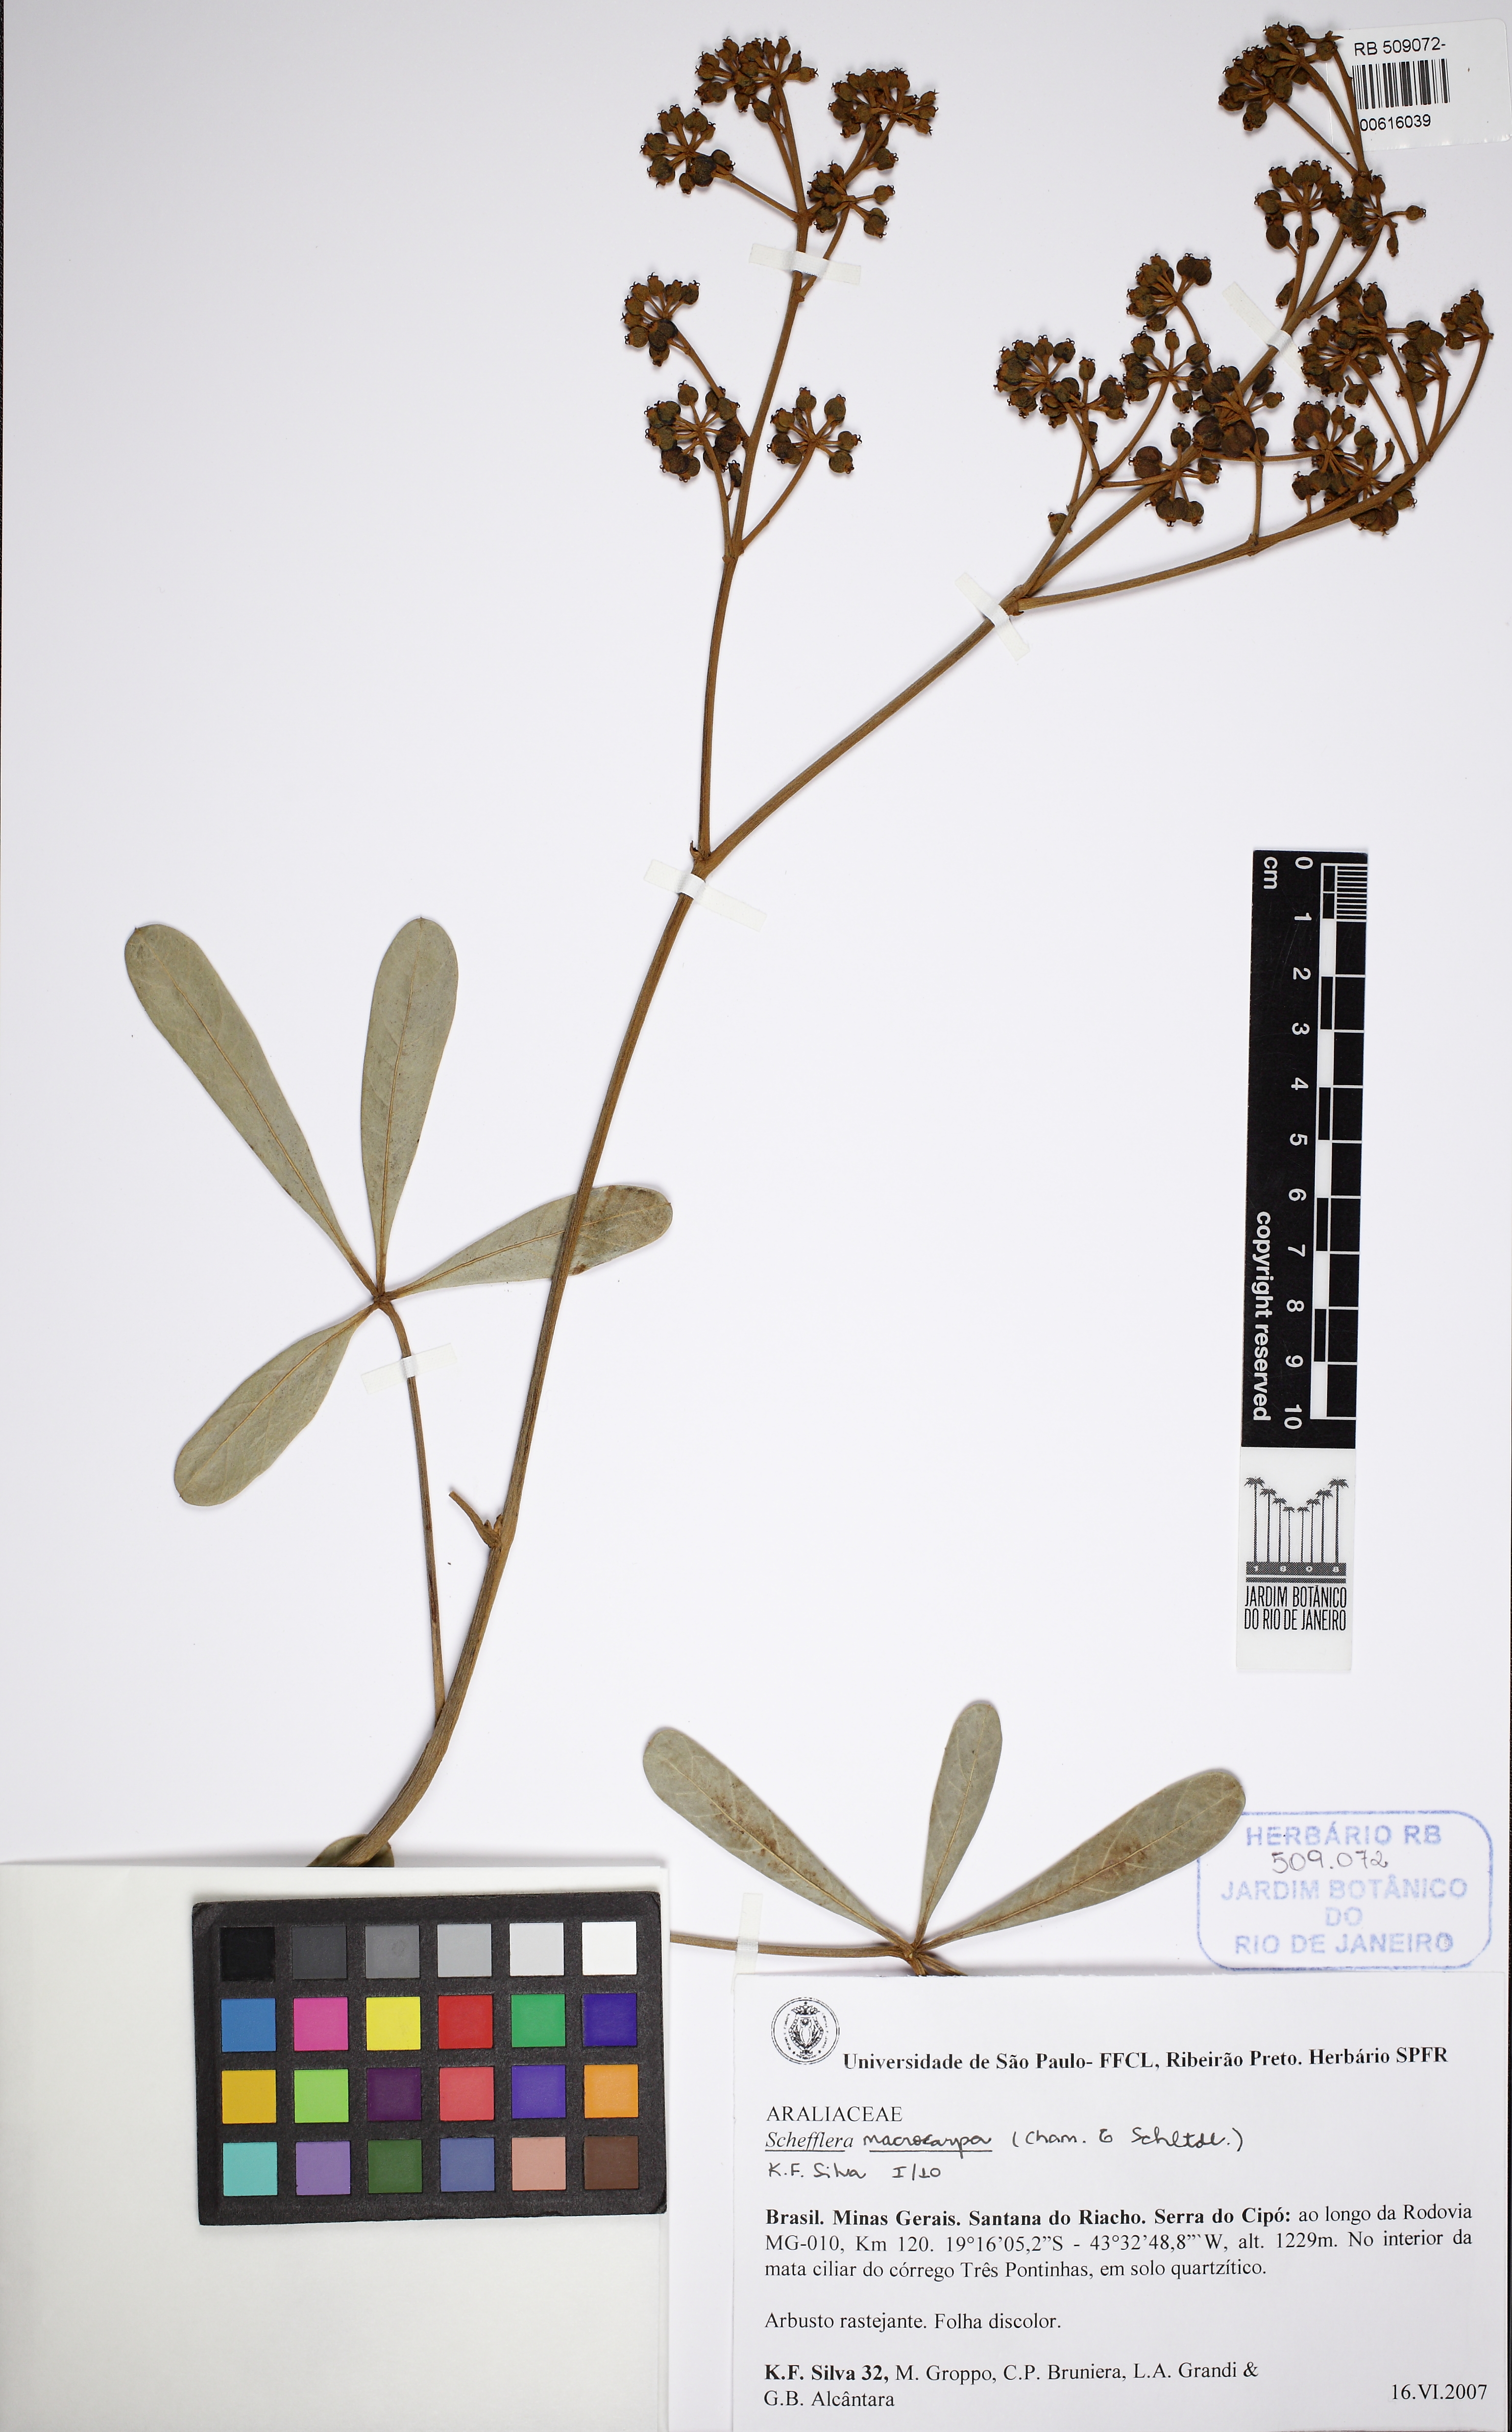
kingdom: Plantae
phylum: Tracheophyta
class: Magnoliopsida
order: Apiales
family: Araliaceae
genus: Didymopanax
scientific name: Didymopanax macrocarpus
